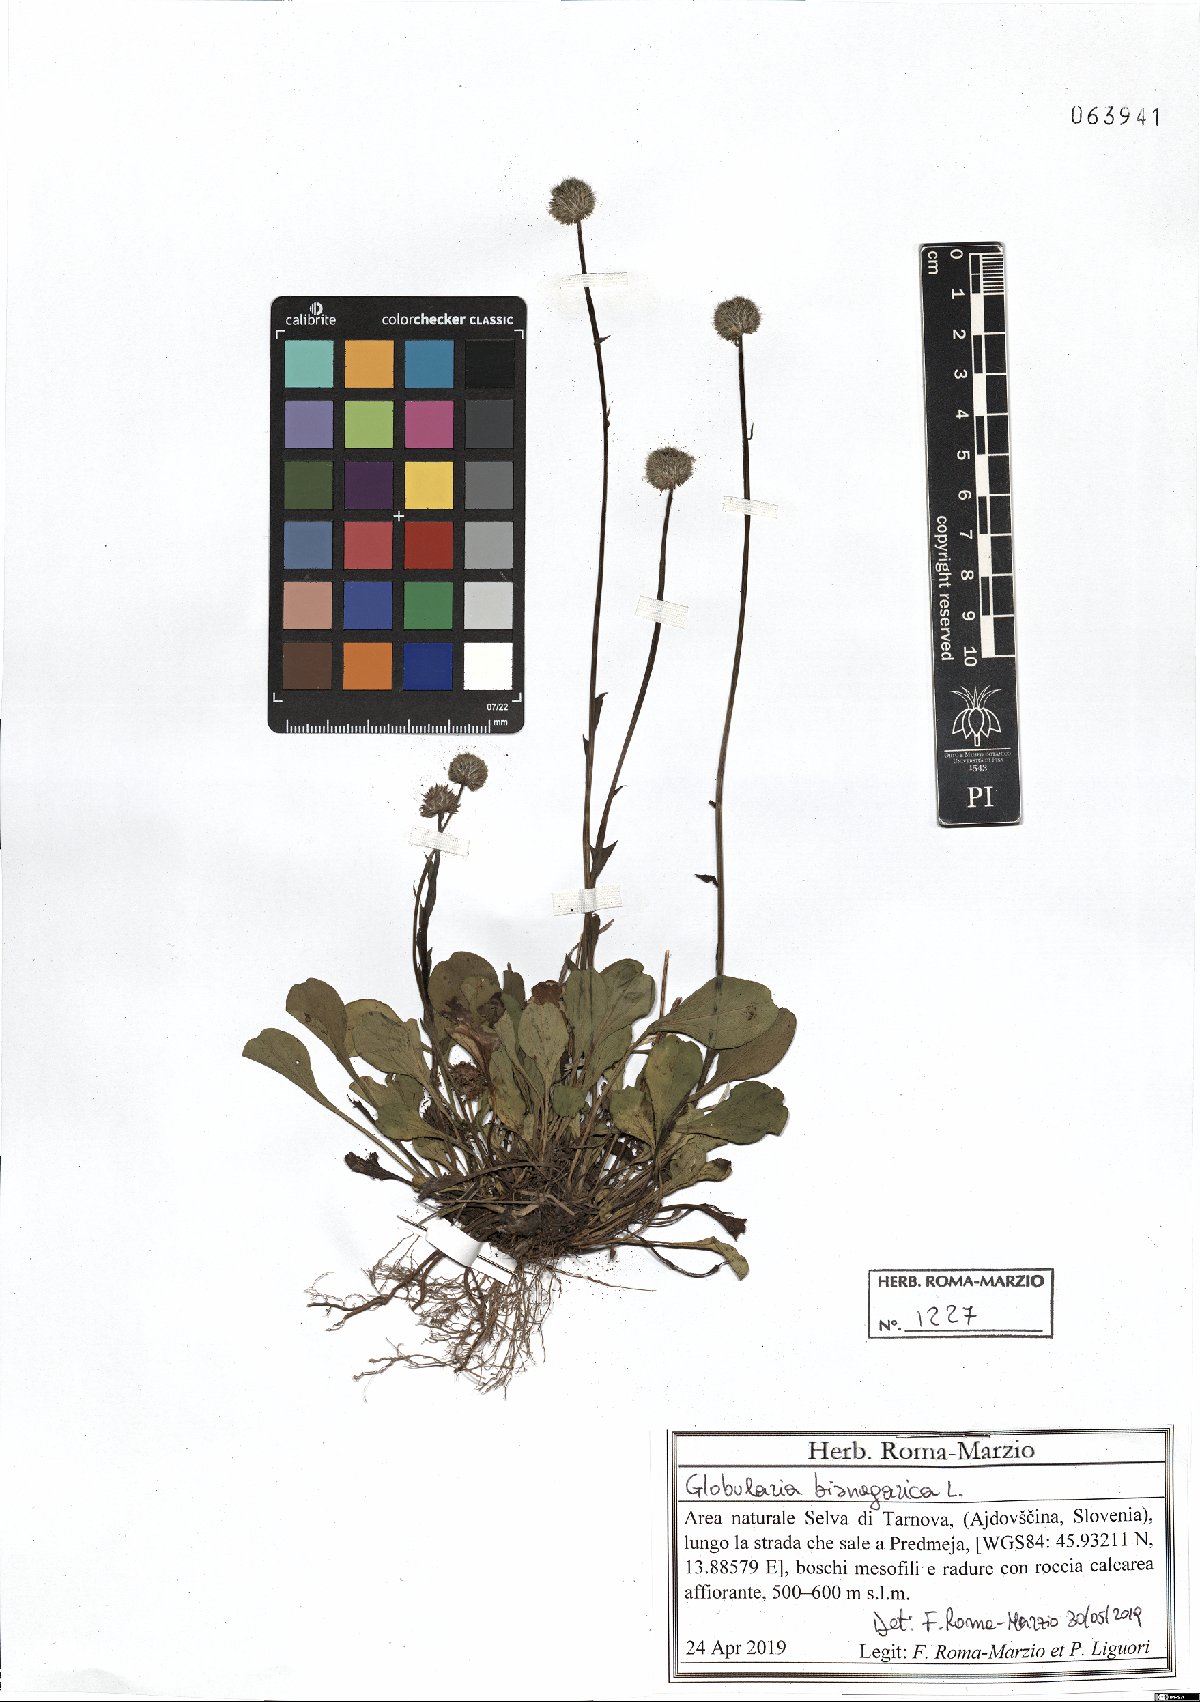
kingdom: Plantae
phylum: Tracheophyta
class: Magnoliopsida
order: Lamiales
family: Plantaginaceae
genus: Globularia
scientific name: Globularia bisnagarica
